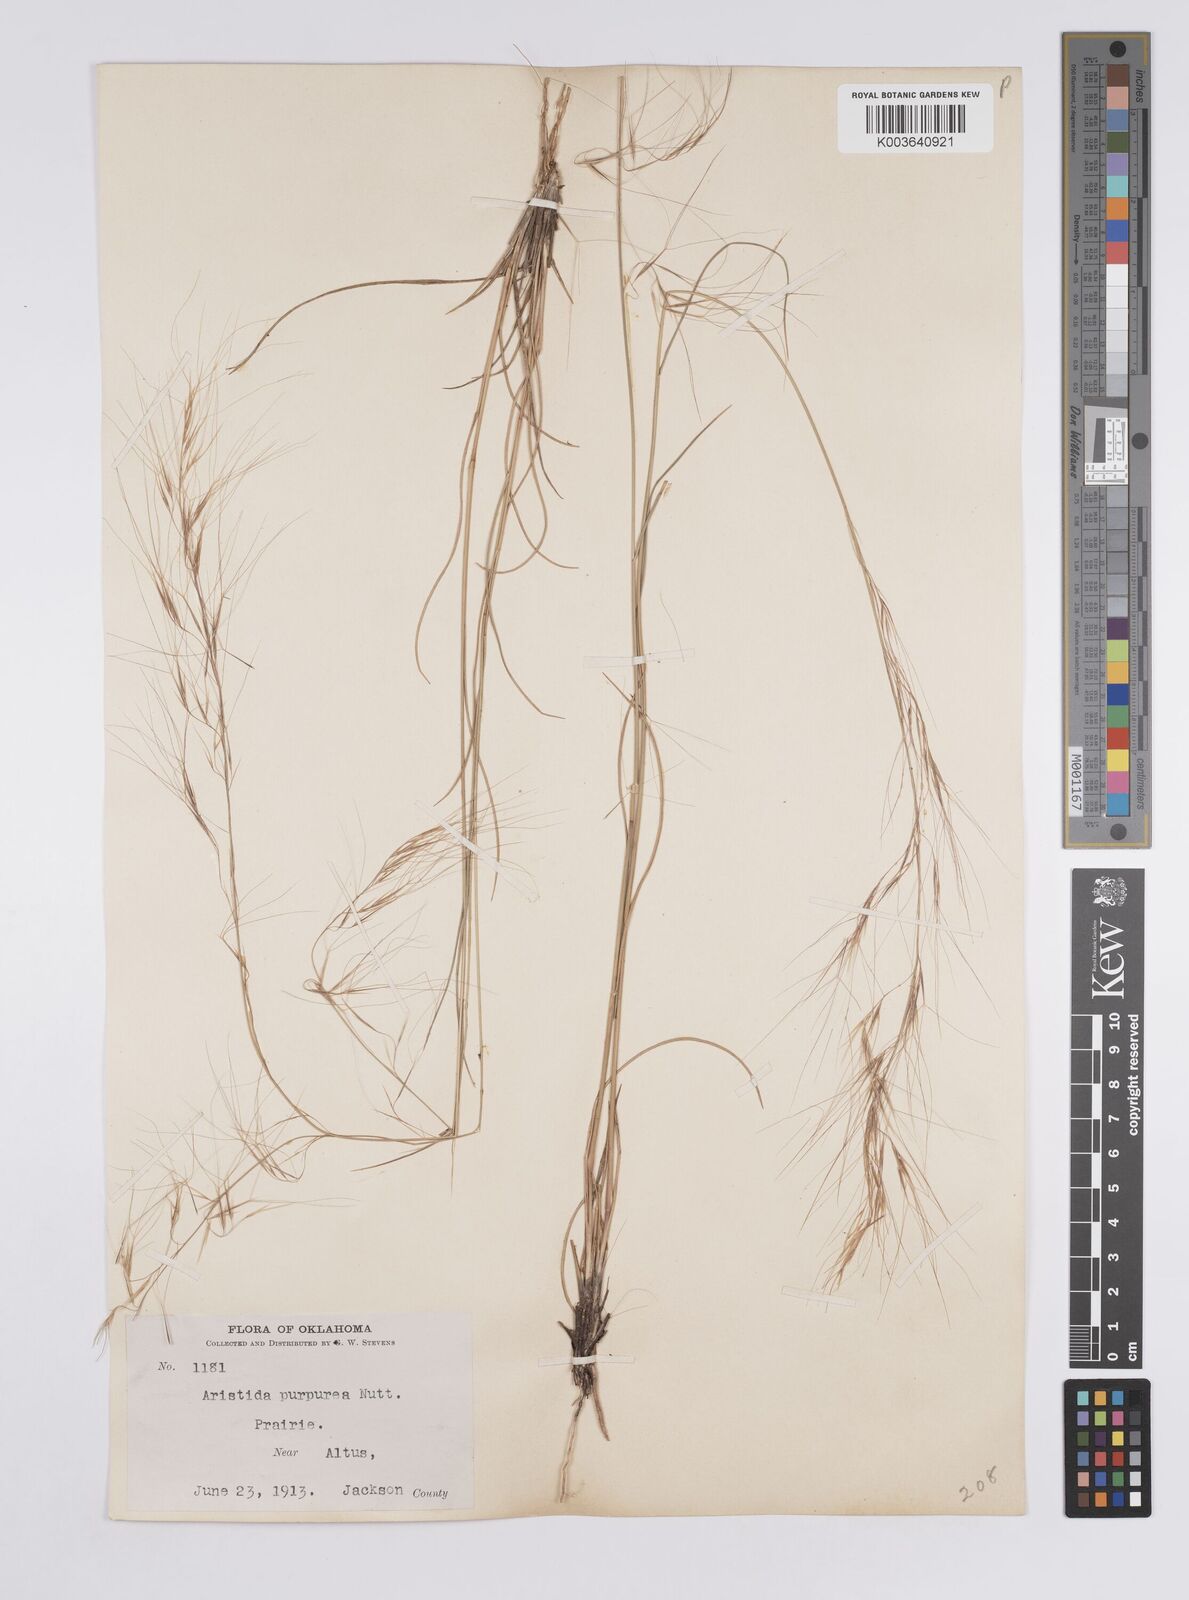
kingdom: Plantae
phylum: Tracheophyta
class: Liliopsida
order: Poales
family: Poaceae
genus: Aristida
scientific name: Aristida purpurea
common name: Purple threeawn
